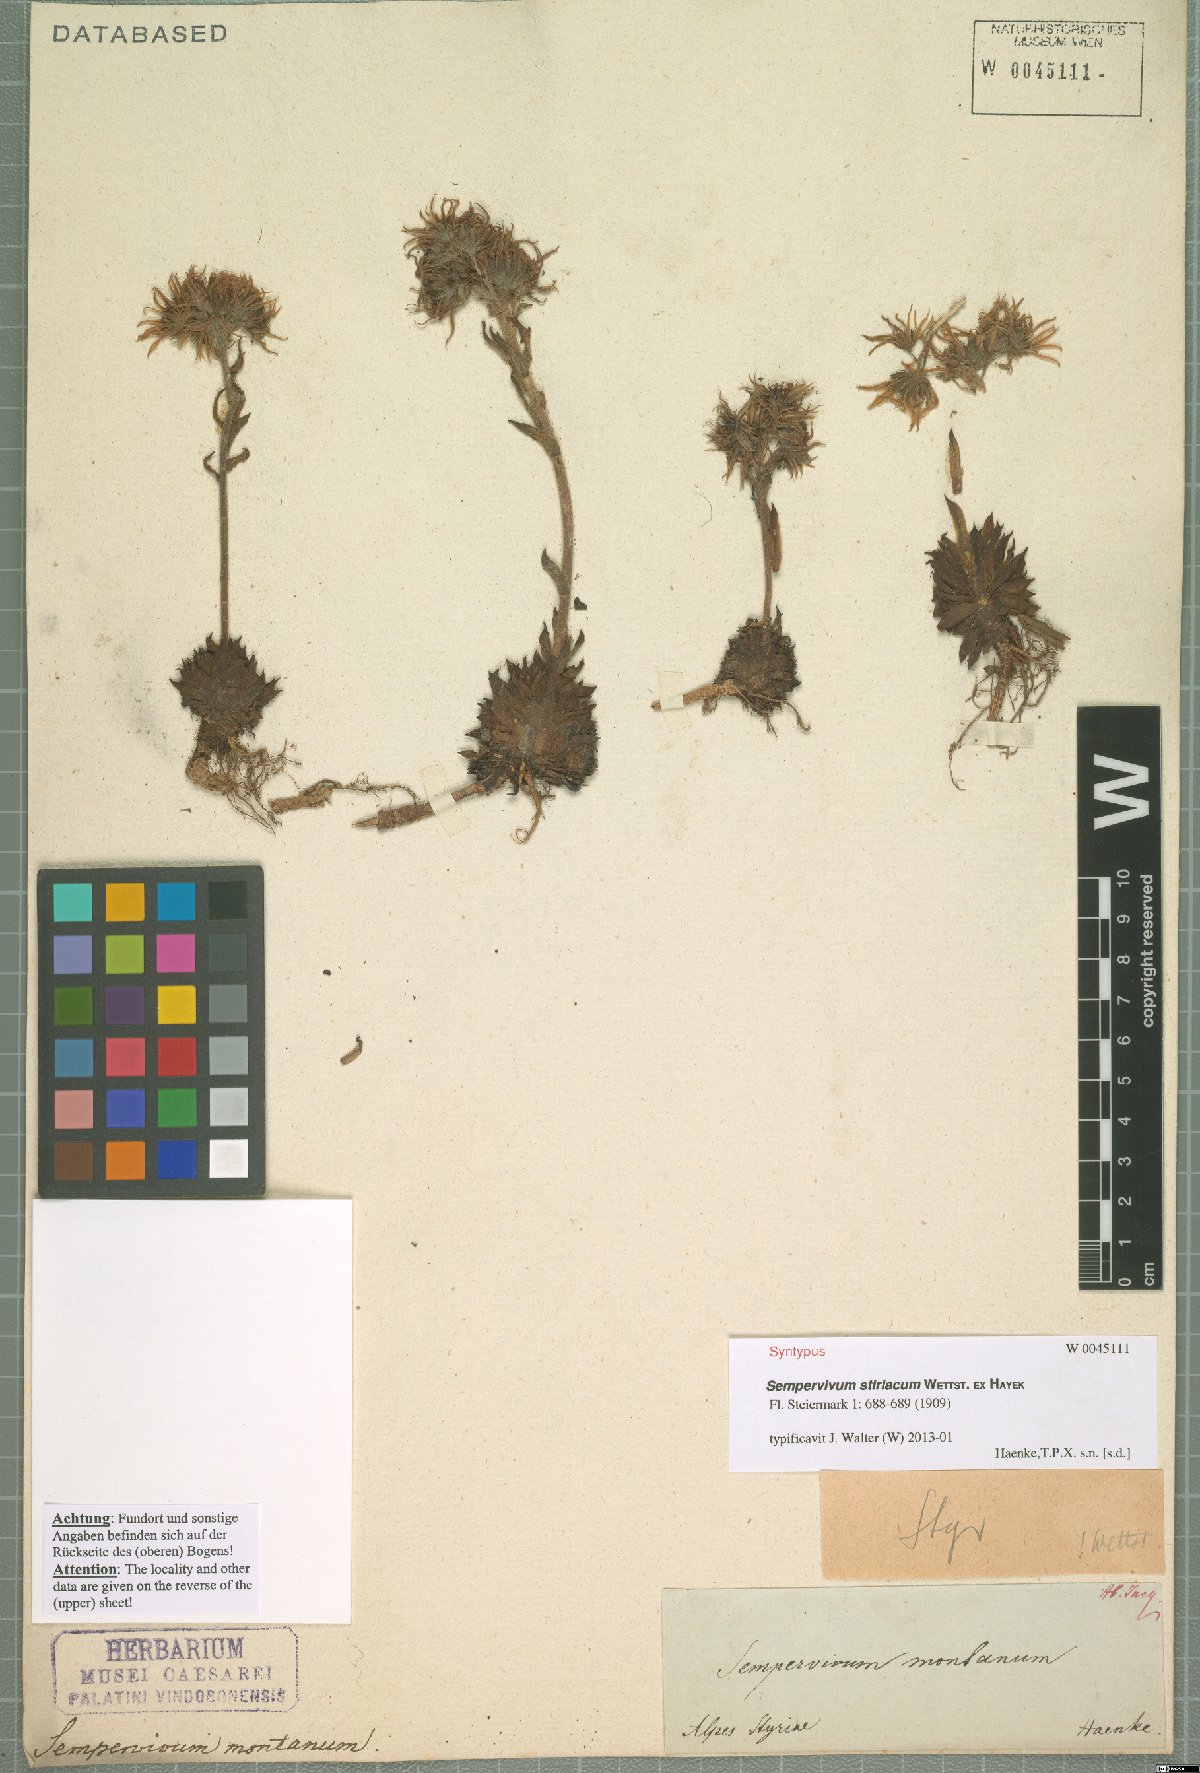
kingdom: Plantae
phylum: Tracheophyta
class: Magnoliopsida
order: Saxifragales
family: Crassulaceae
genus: Sempervivum
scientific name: Sempervivum montanum
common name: Mountain house-leek
